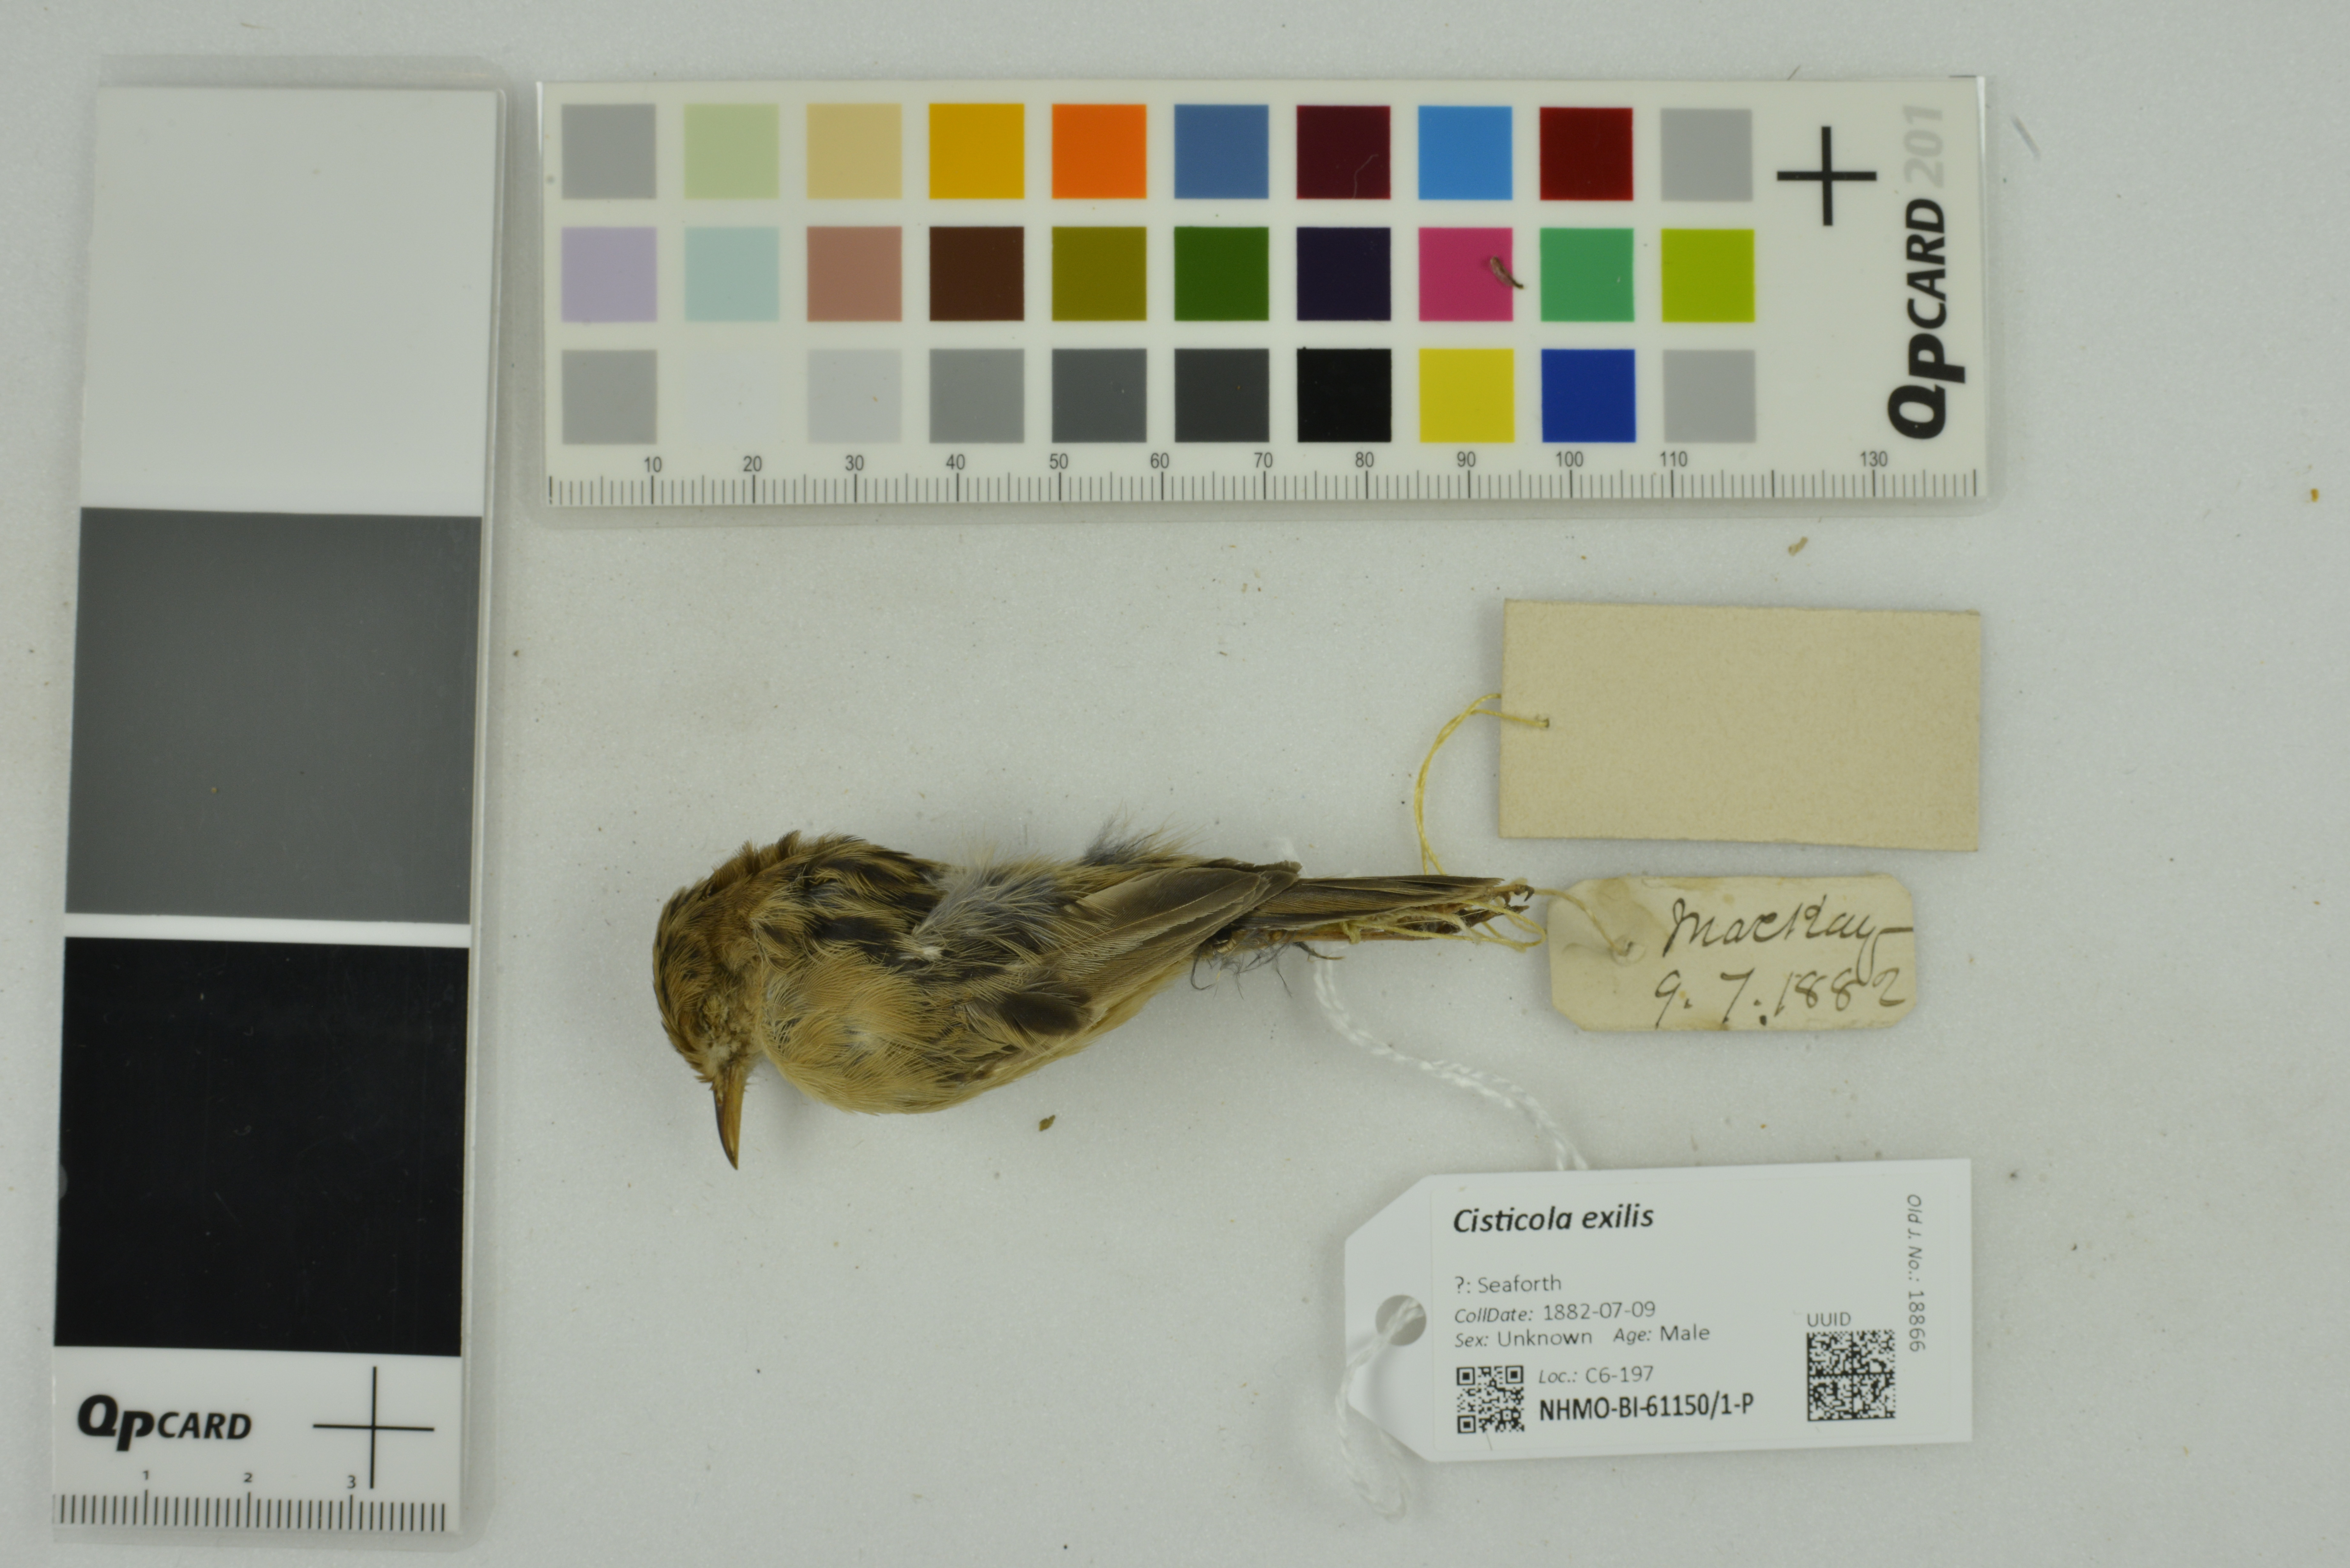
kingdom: Animalia
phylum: Chordata
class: Aves
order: Passeriformes
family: Cisticolidae
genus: Cisticola
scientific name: Cisticola exilis
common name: Golden-headed cisticola
